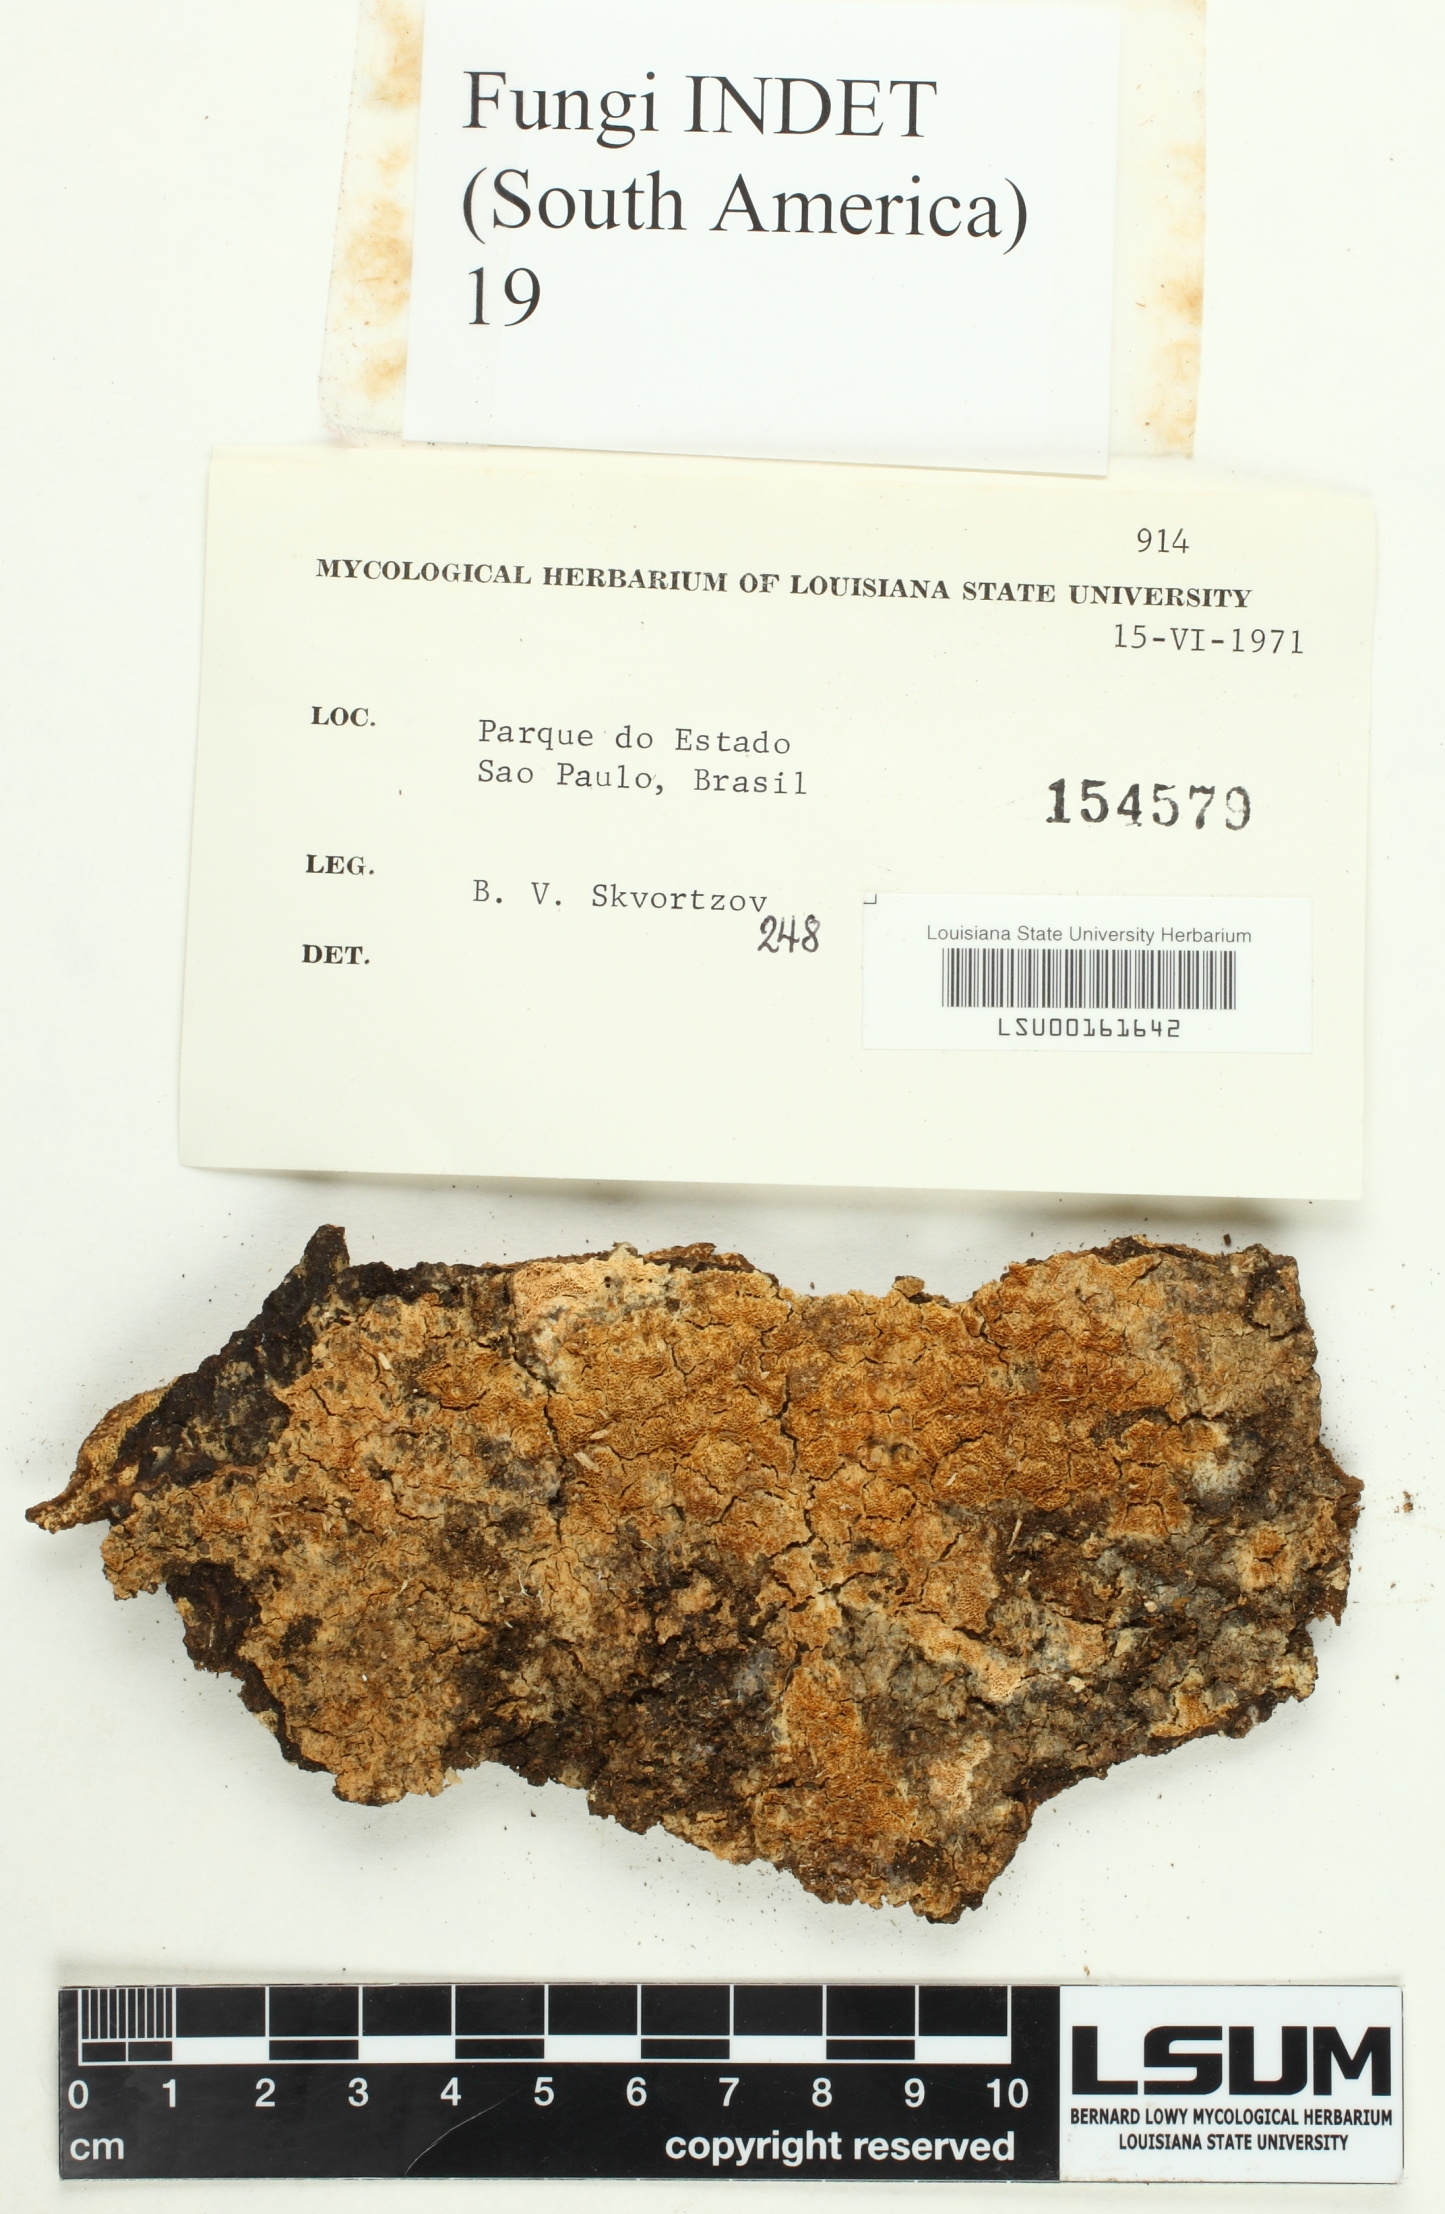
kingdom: Fungi
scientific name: Fungi
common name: Fungi
